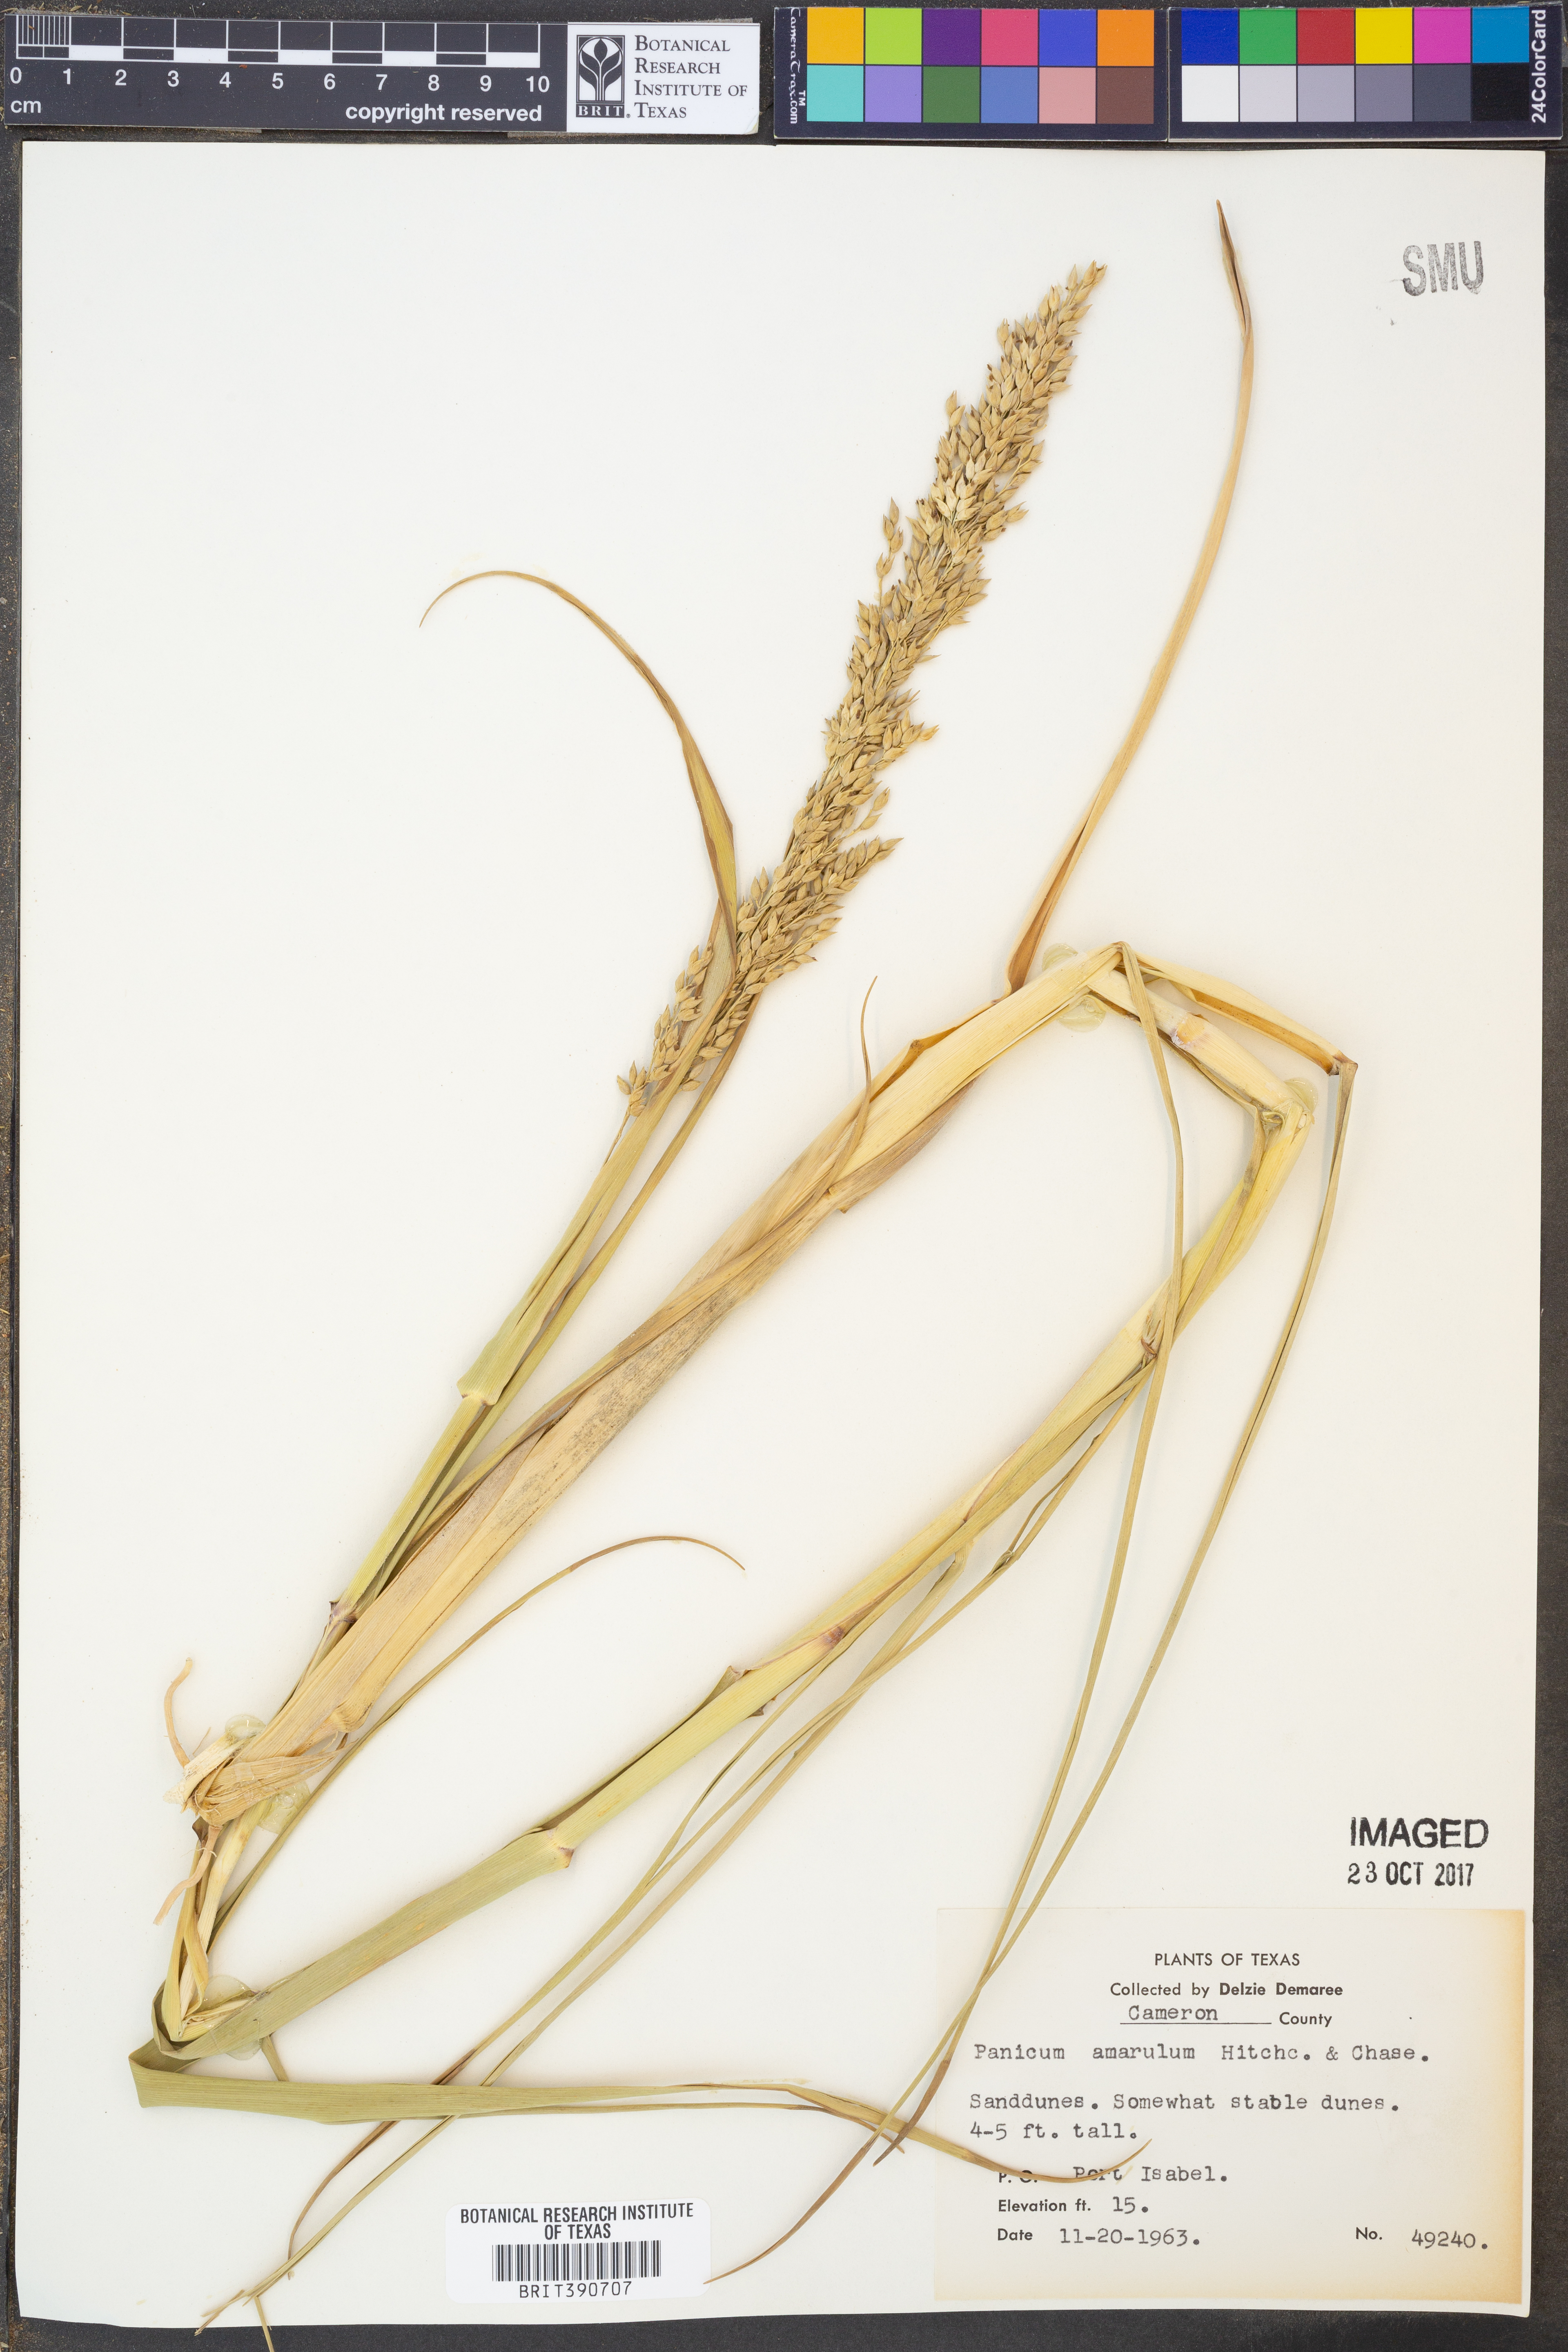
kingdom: Plantae
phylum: Tracheophyta
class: Liliopsida
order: Poales
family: Poaceae
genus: Panicum
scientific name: Panicum amarum
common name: Bitter panicum
